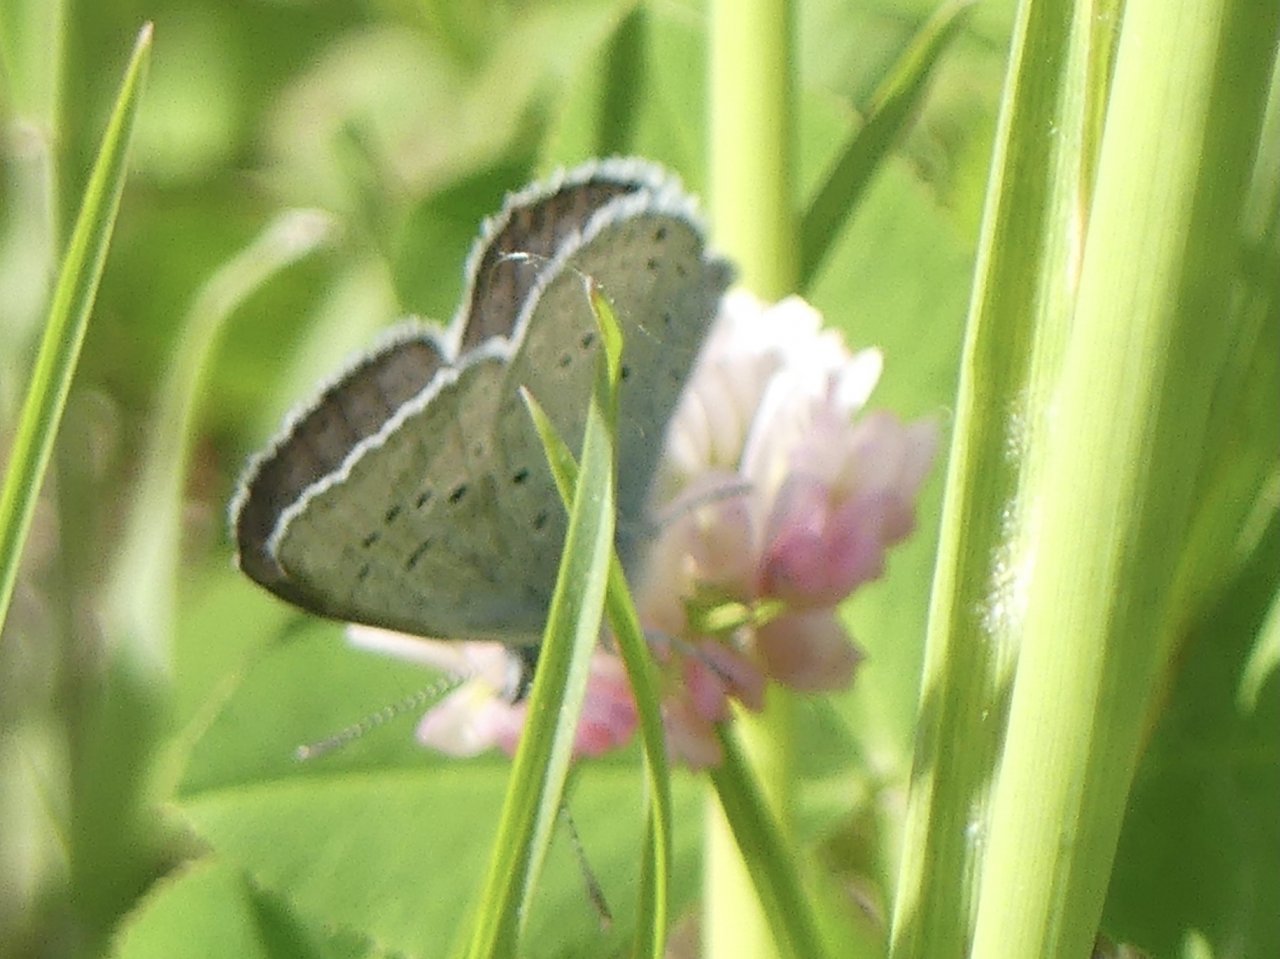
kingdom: Animalia
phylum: Arthropoda
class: Insecta
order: Lepidoptera
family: Lycaenidae
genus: Plebejus
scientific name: Plebejus saepiolus
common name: Greenish Blue
